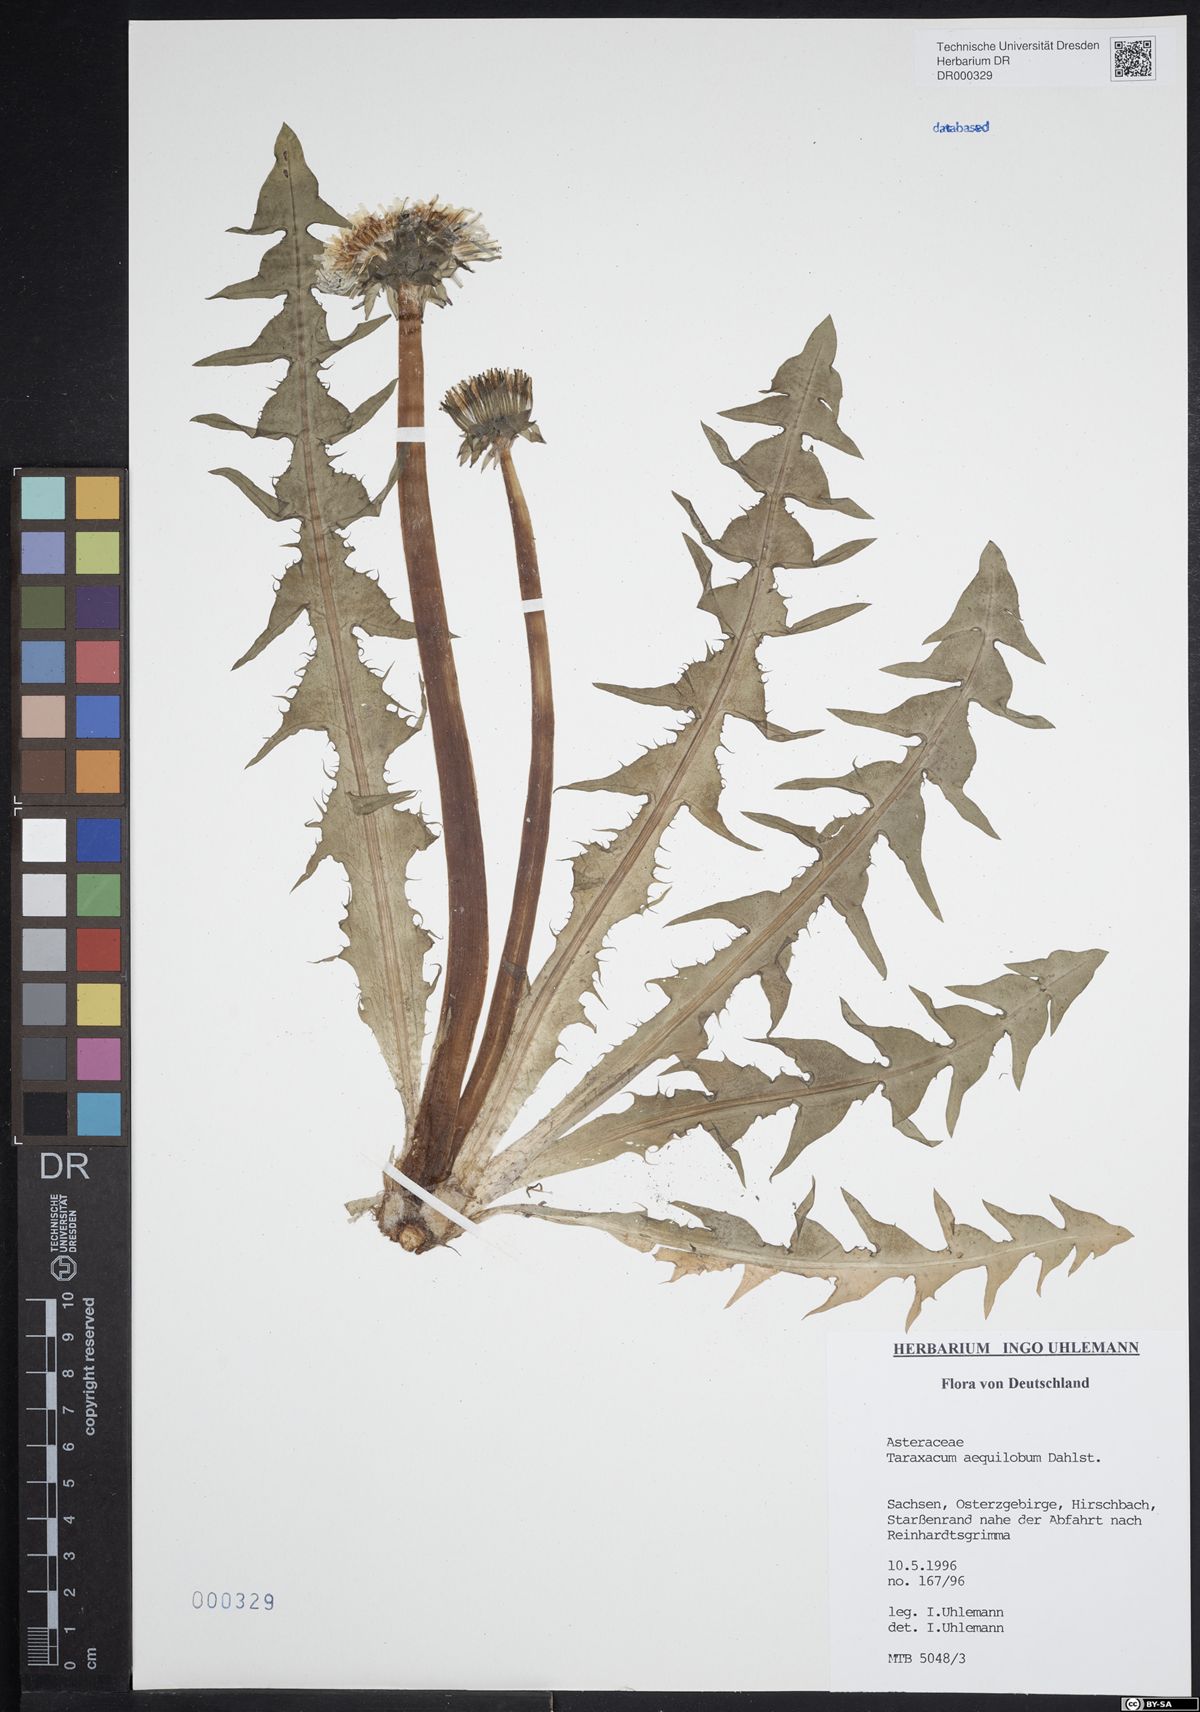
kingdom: Plantae
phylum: Tracheophyta
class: Magnoliopsida
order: Asterales
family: Asteraceae
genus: Taraxacum
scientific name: Taraxacum aequilobum
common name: Twisted-bracted dandelion
